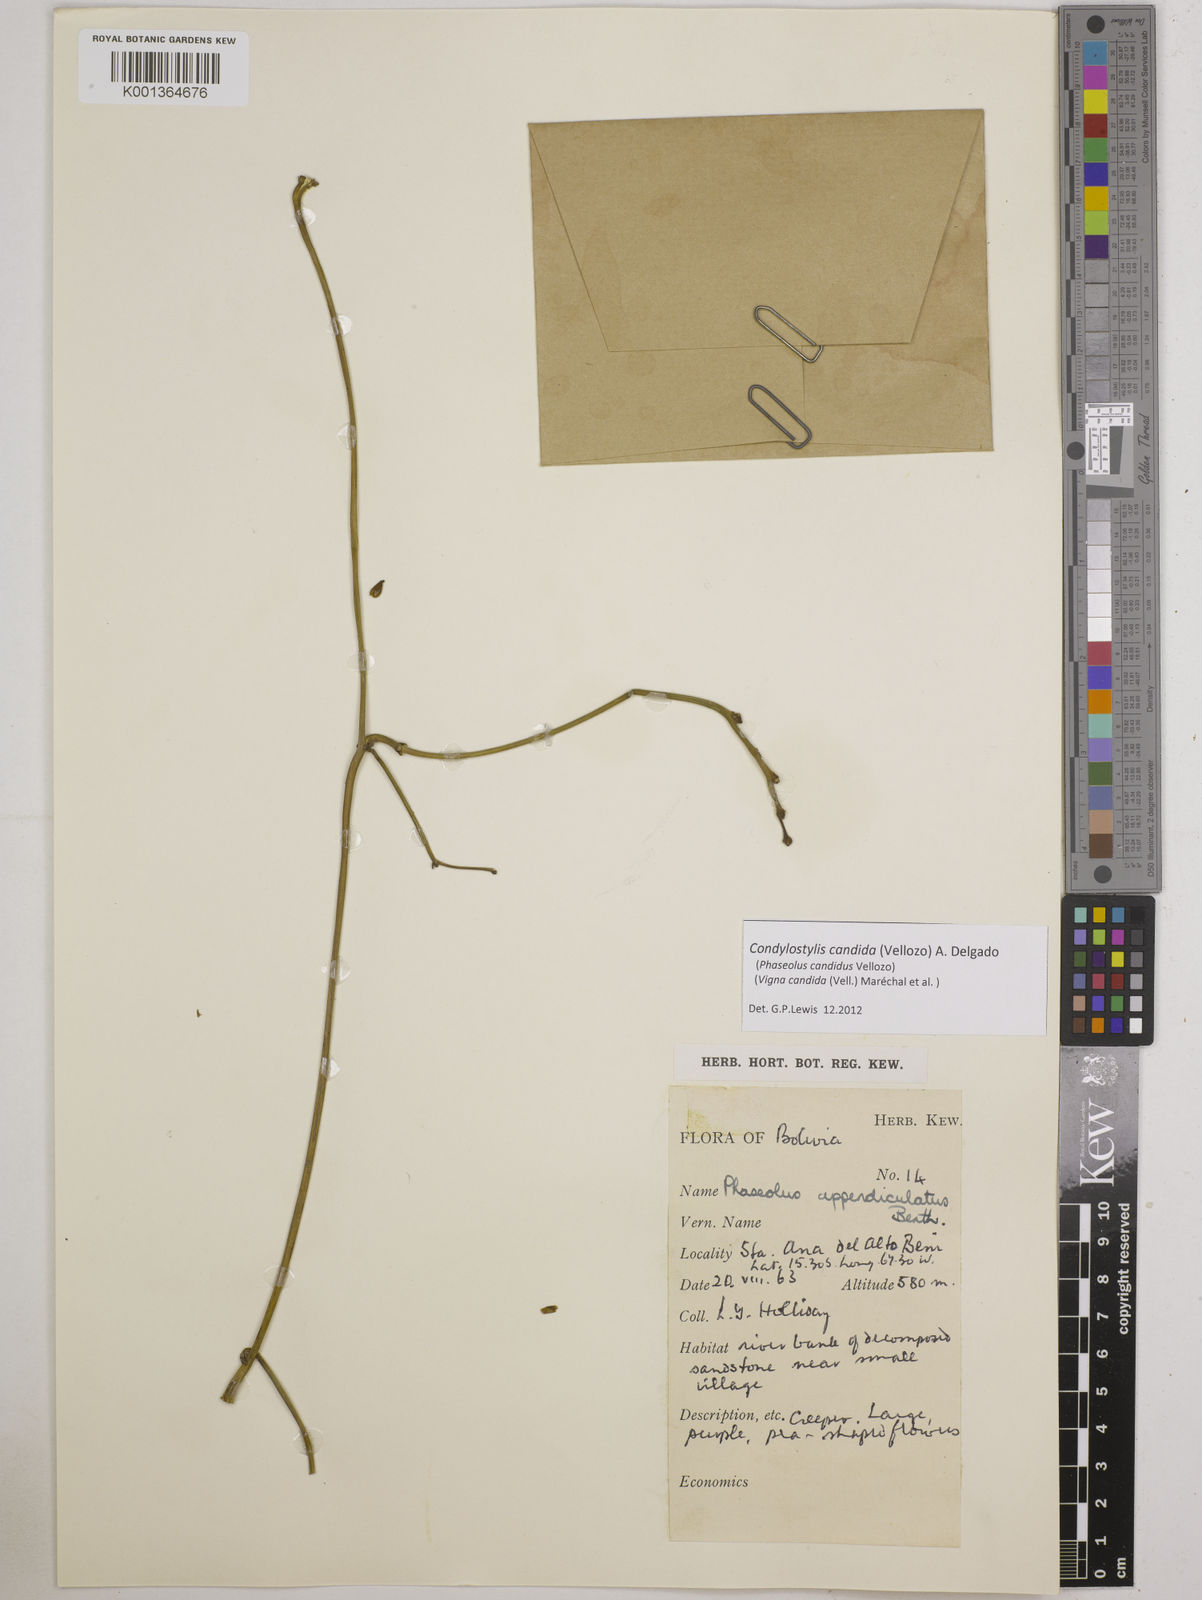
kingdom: Plantae
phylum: Tracheophyta
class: Magnoliopsida
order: Fabales
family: Fabaceae
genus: Condylostylis
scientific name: Condylostylis candida
